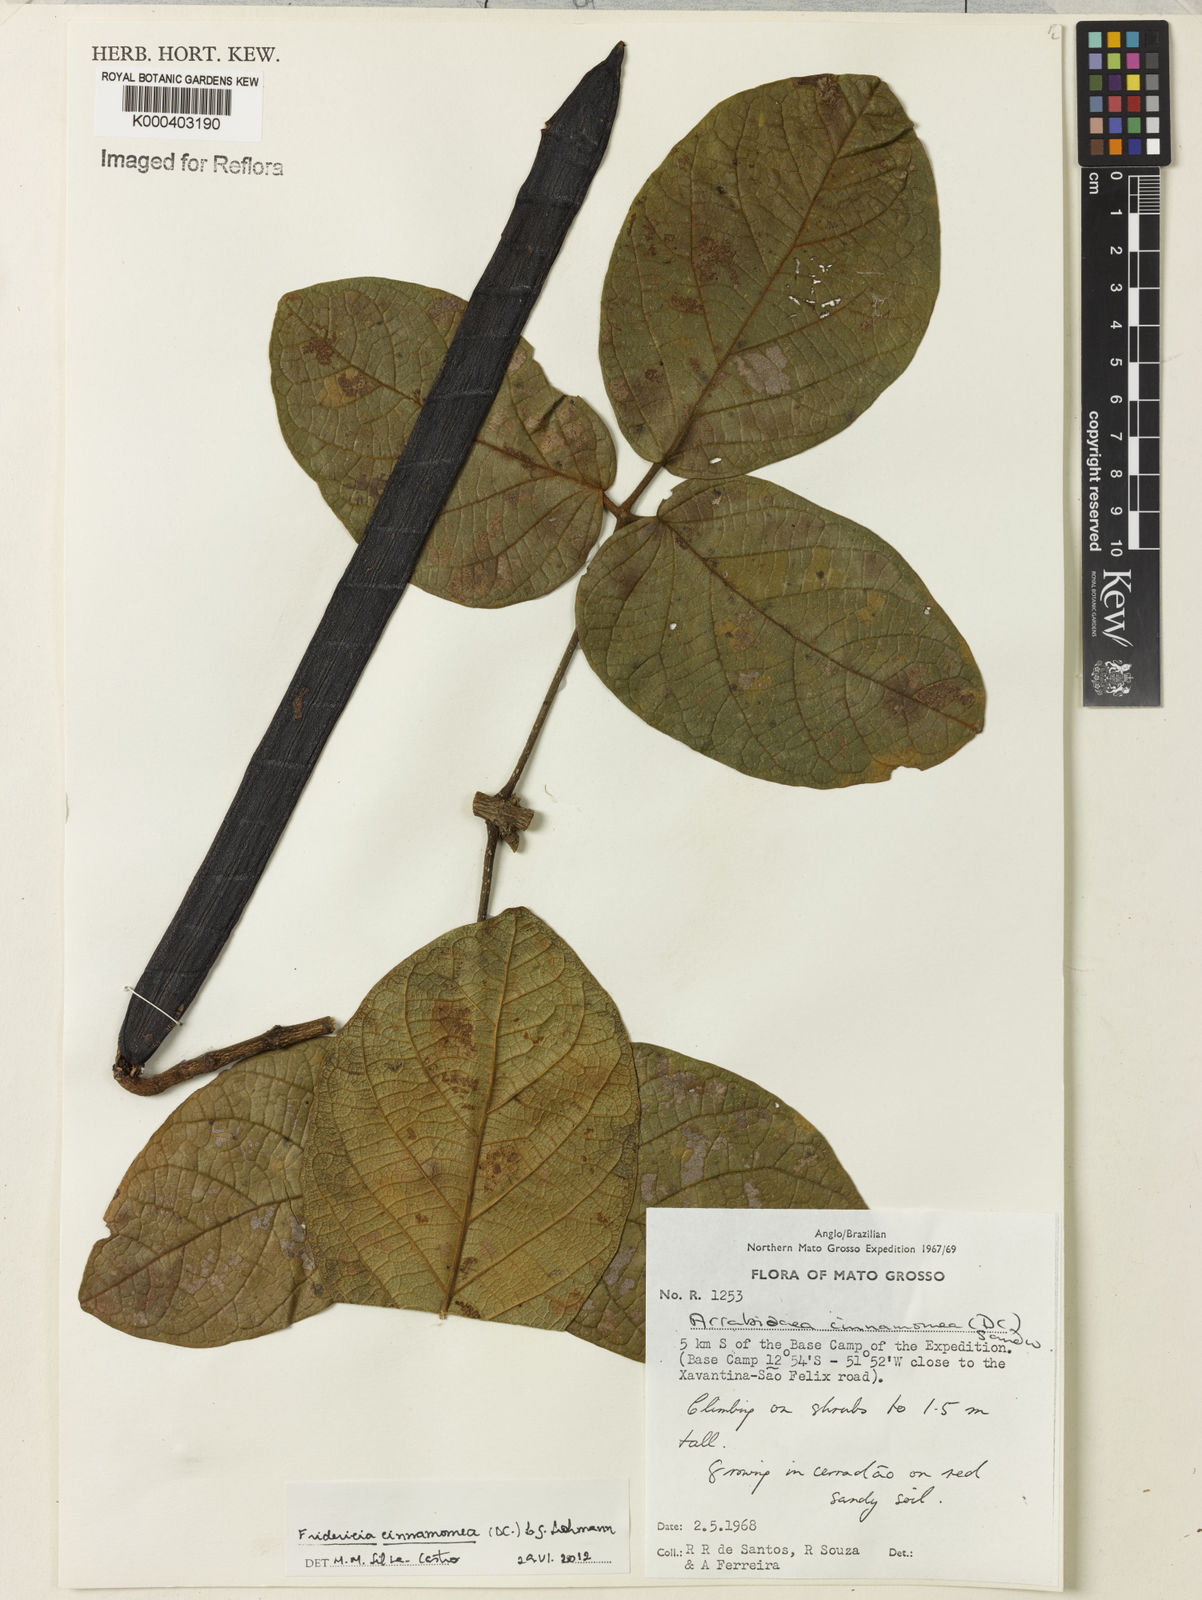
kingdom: Plantae
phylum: Tracheophyta
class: Magnoliopsida
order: Lamiales
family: Bignoniaceae
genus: Fridericia
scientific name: Fridericia cinnamomea
